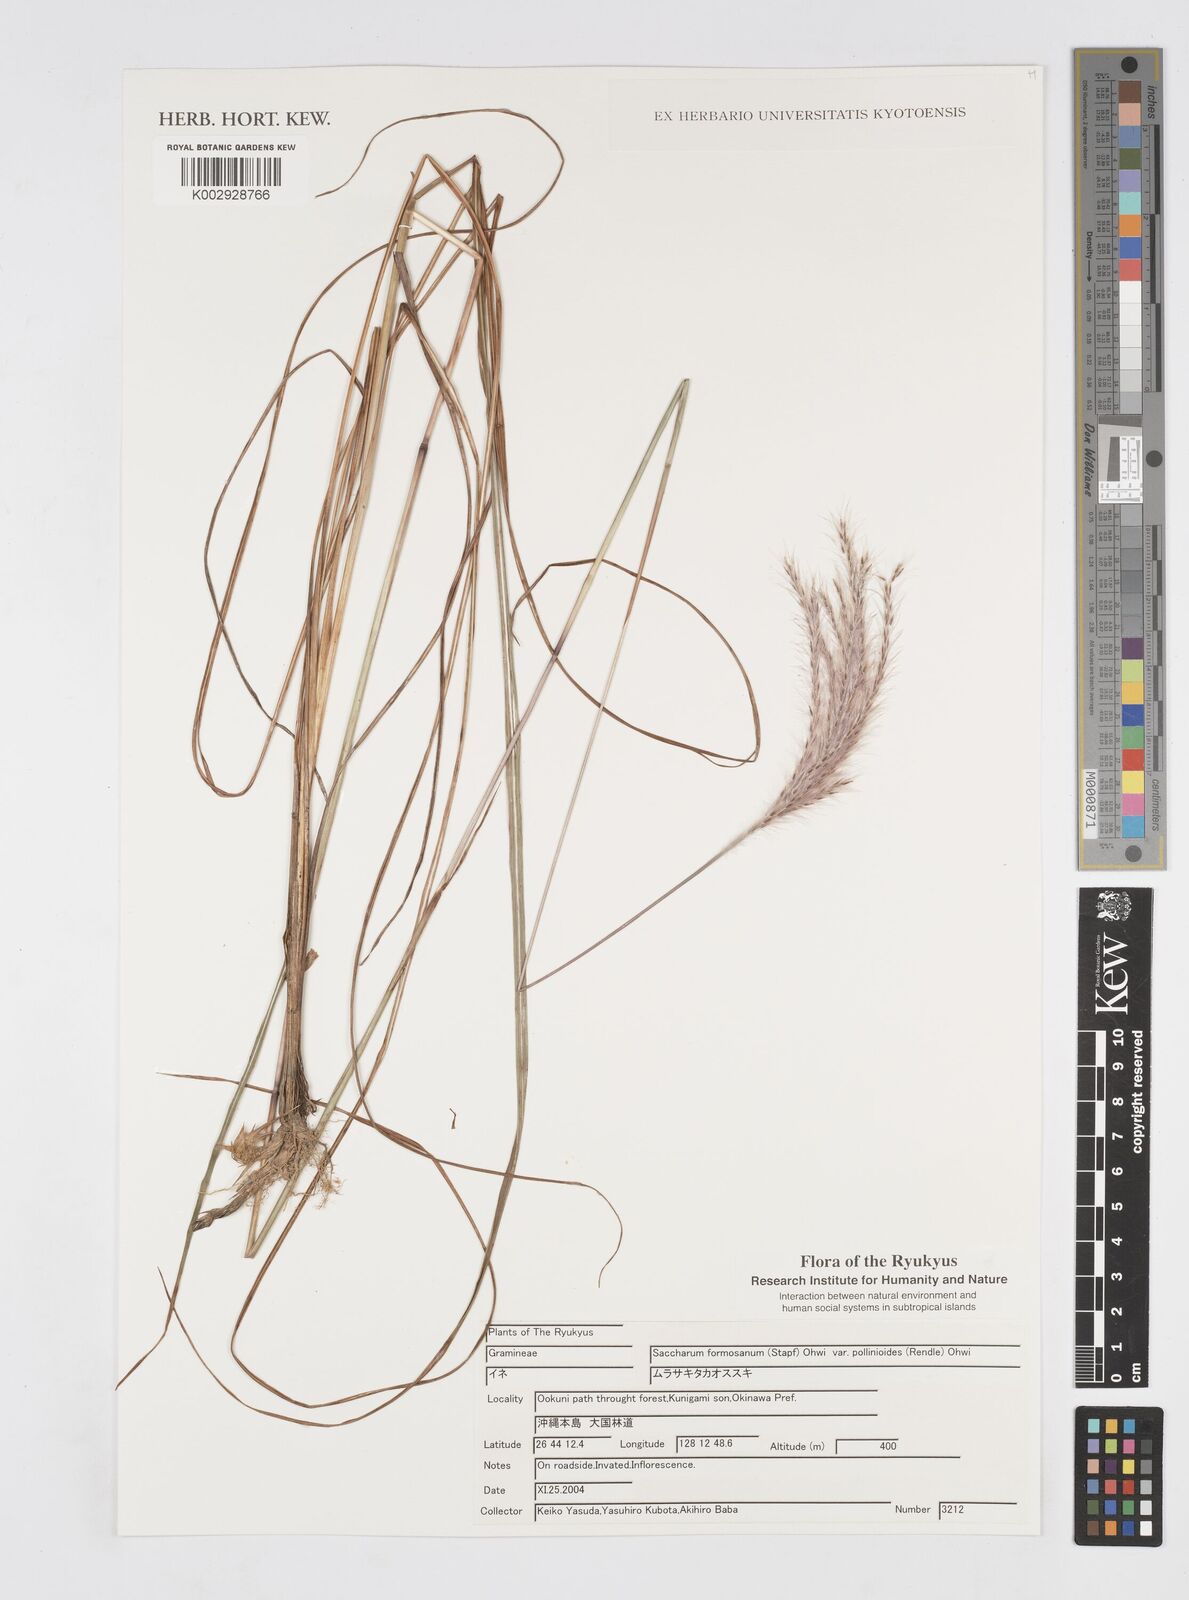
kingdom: Plantae
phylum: Tracheophyta
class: Liliopsida
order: Poales
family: Poaceae
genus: Saccharum
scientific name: Saccharum formosanum
